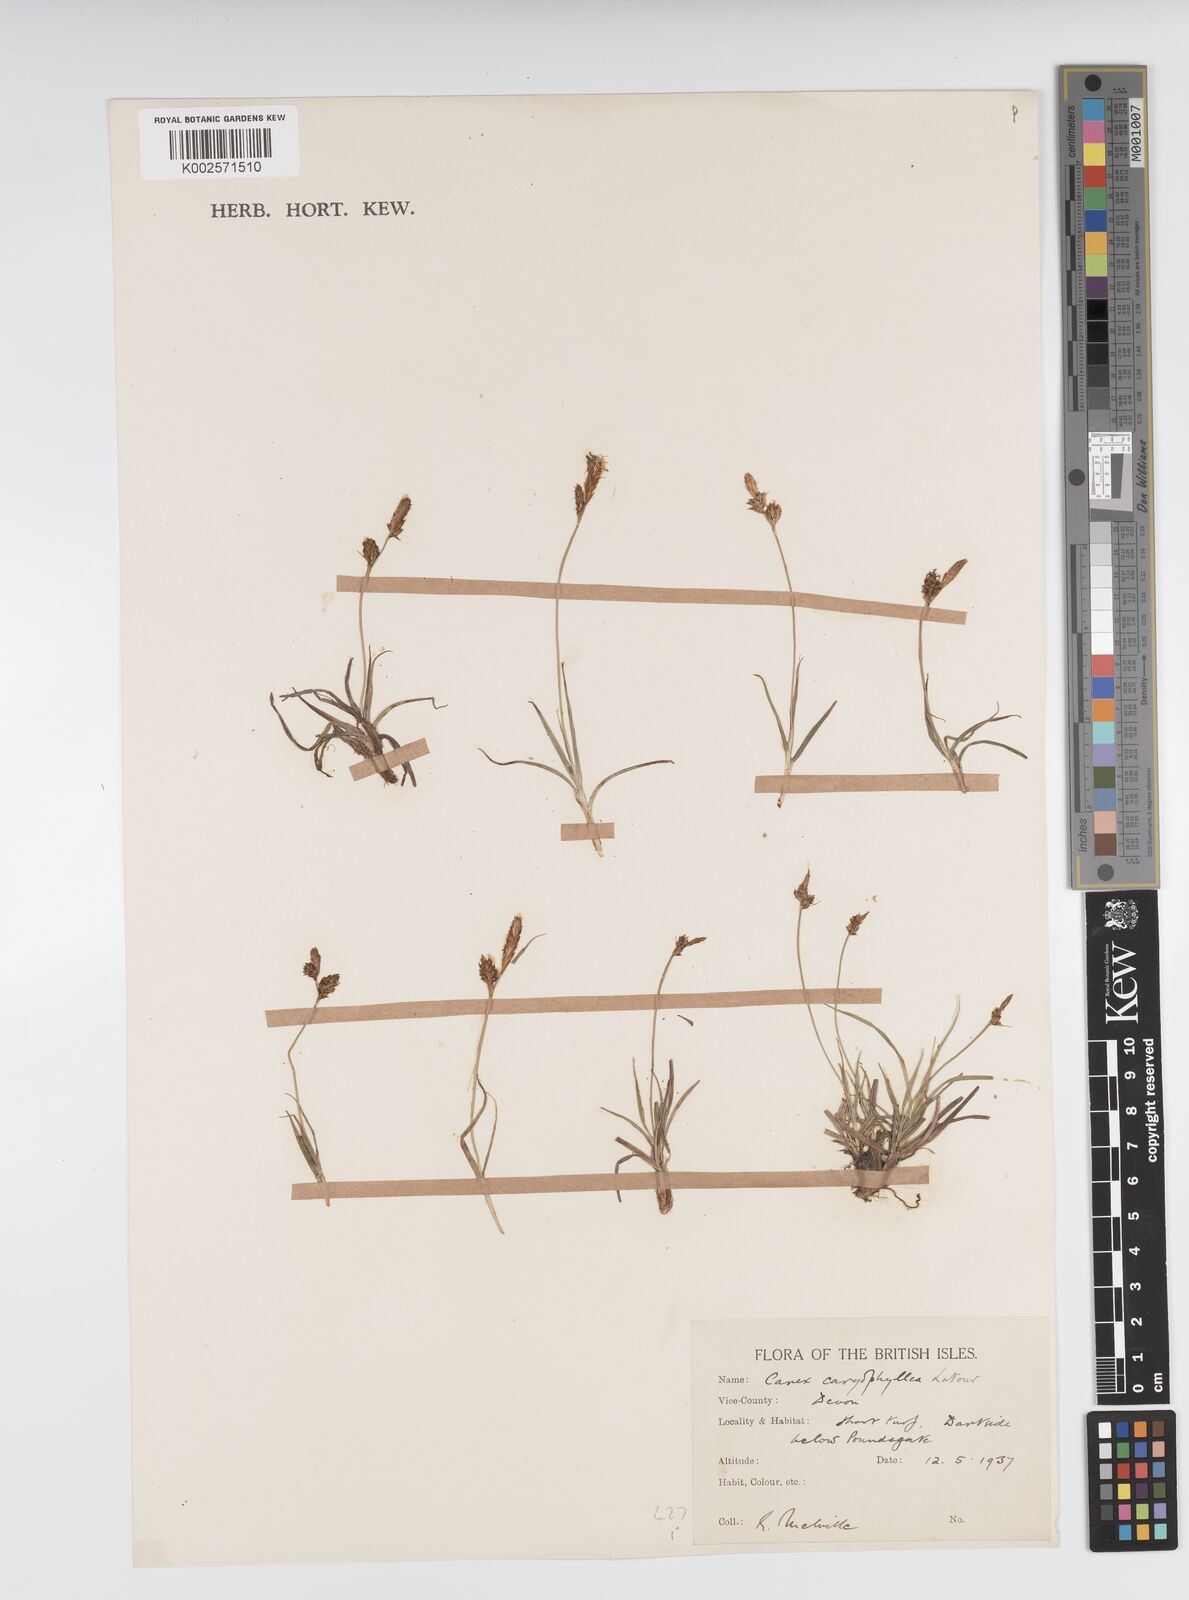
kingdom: Plantae
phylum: Tracheophyta
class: Liliopsida
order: Poales
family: Cyperaceae
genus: Carex
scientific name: Carex caryophyllea
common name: Spring sedge
